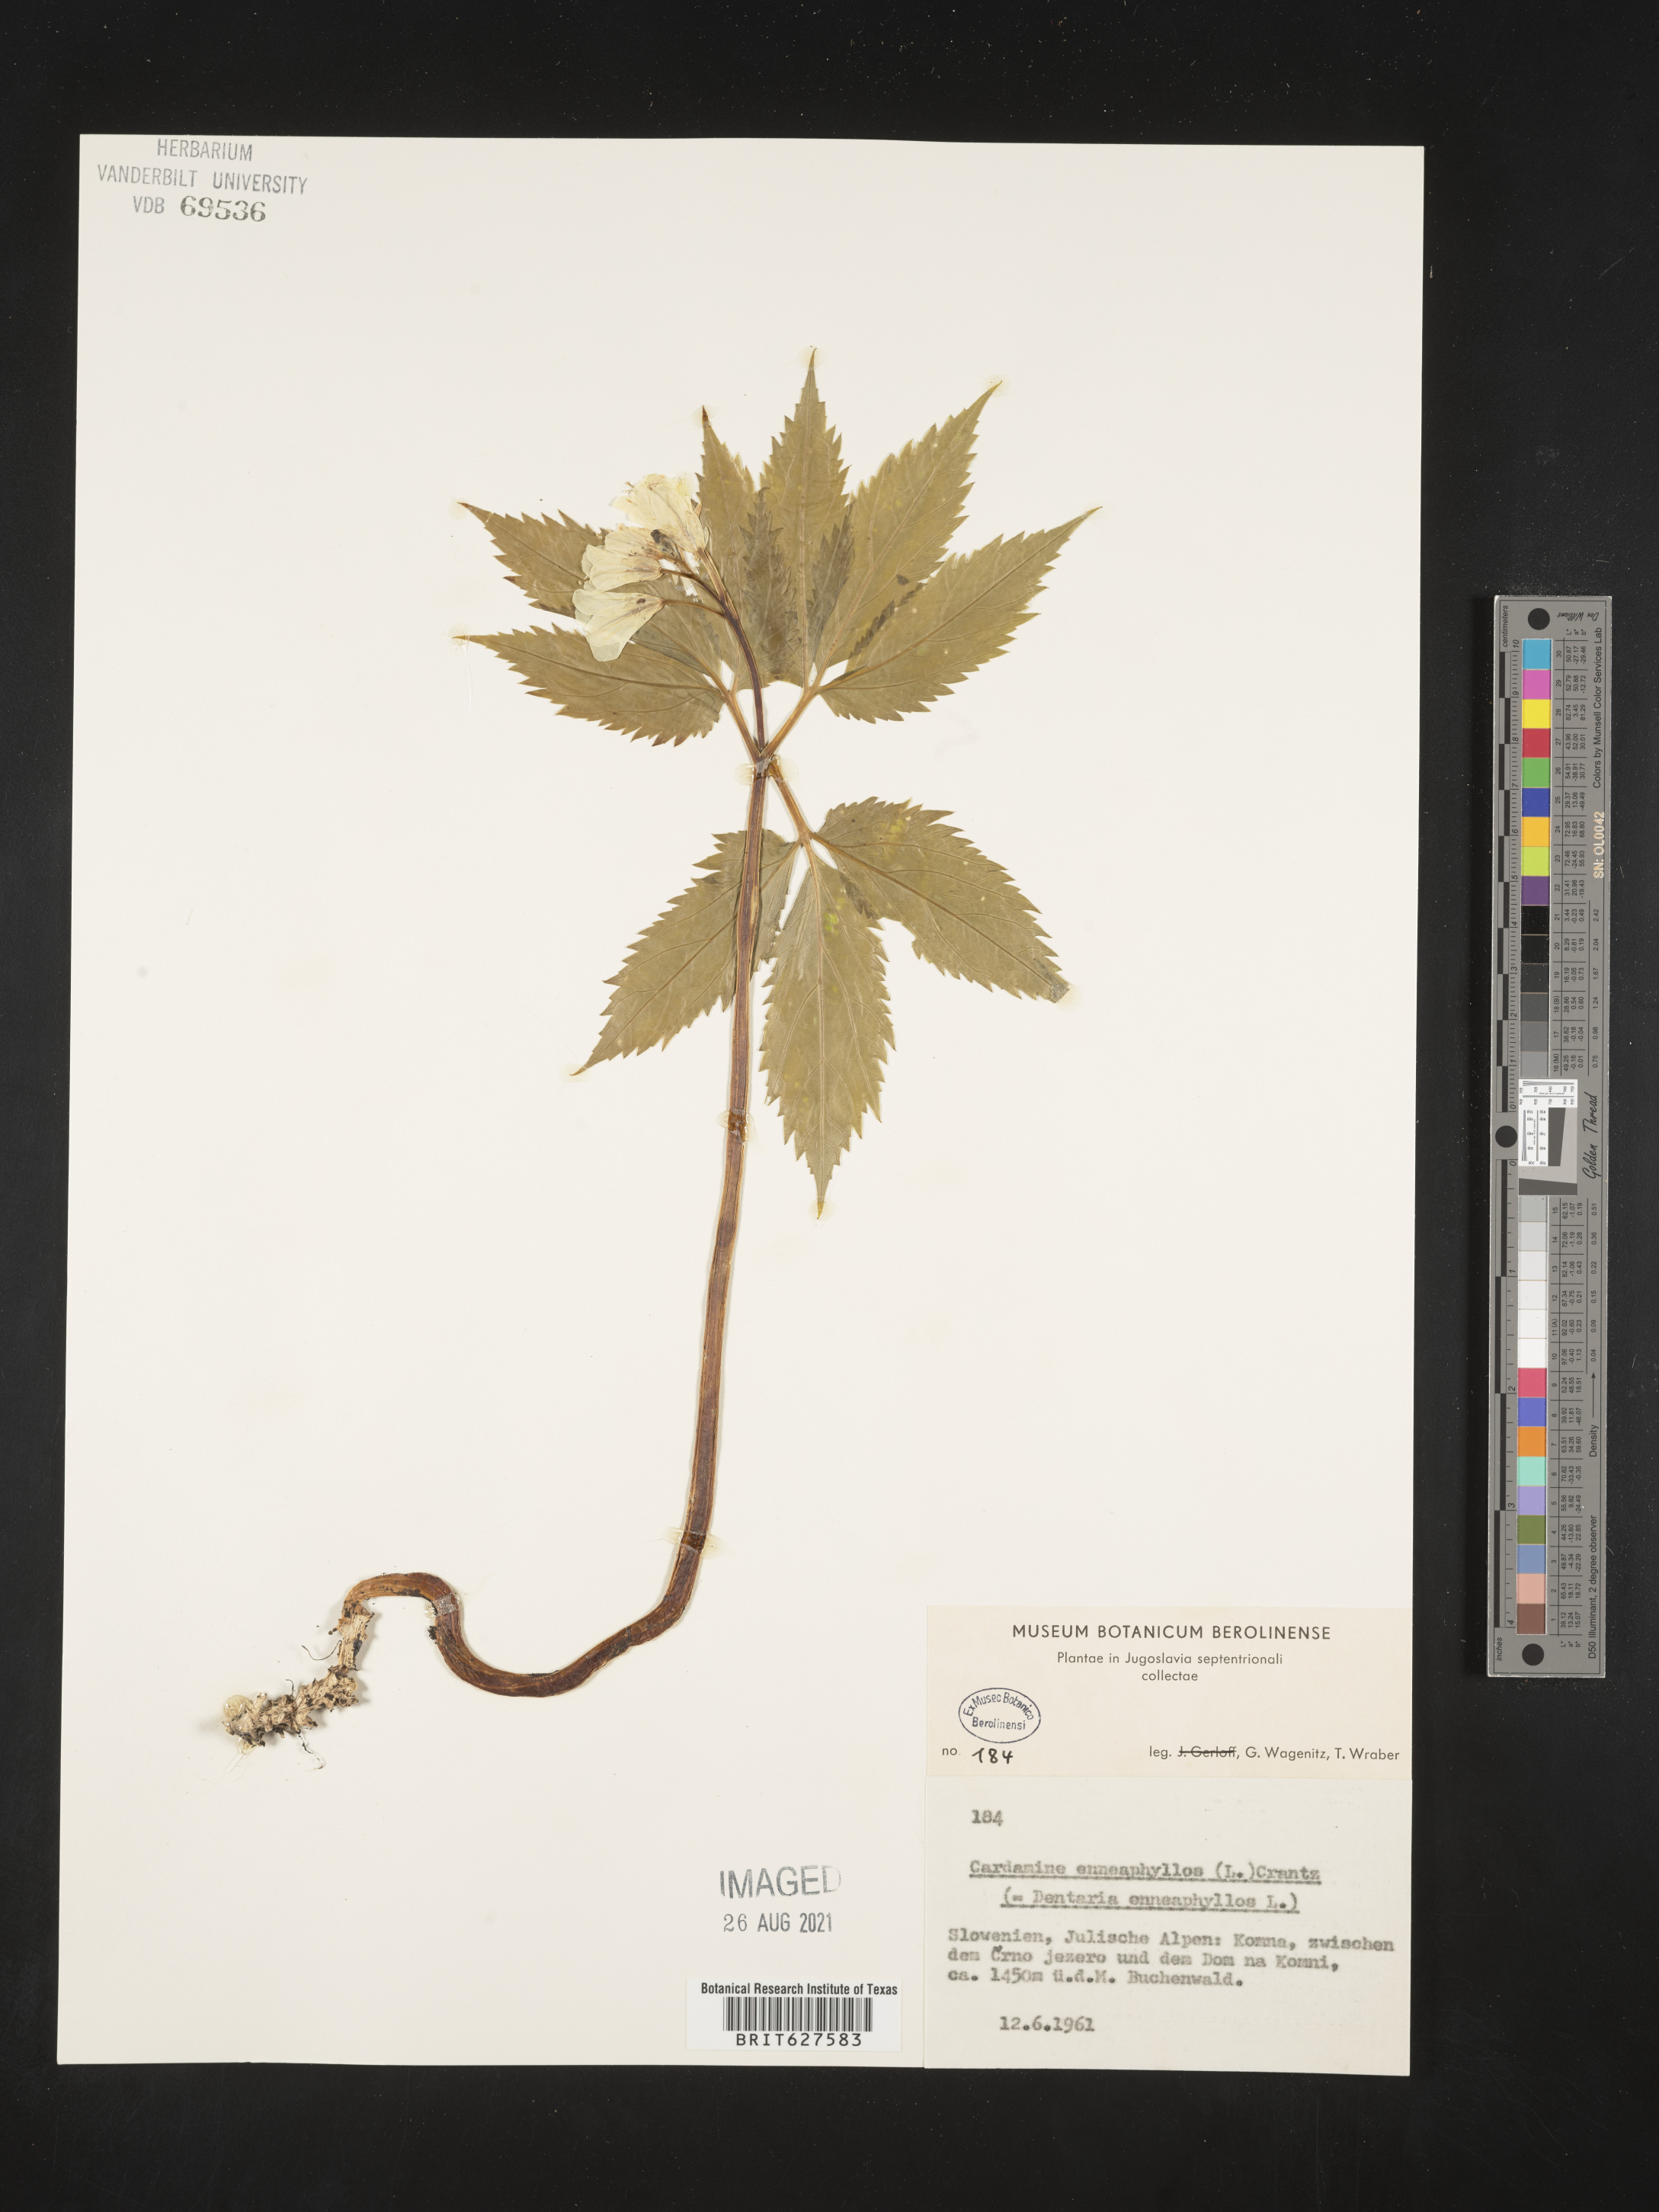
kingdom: Plantae
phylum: Tracheophyta
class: Magnoliopsida
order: Brassicales
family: Brassicaceae
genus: Cardamine
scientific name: Cardamine enneaphyllos
